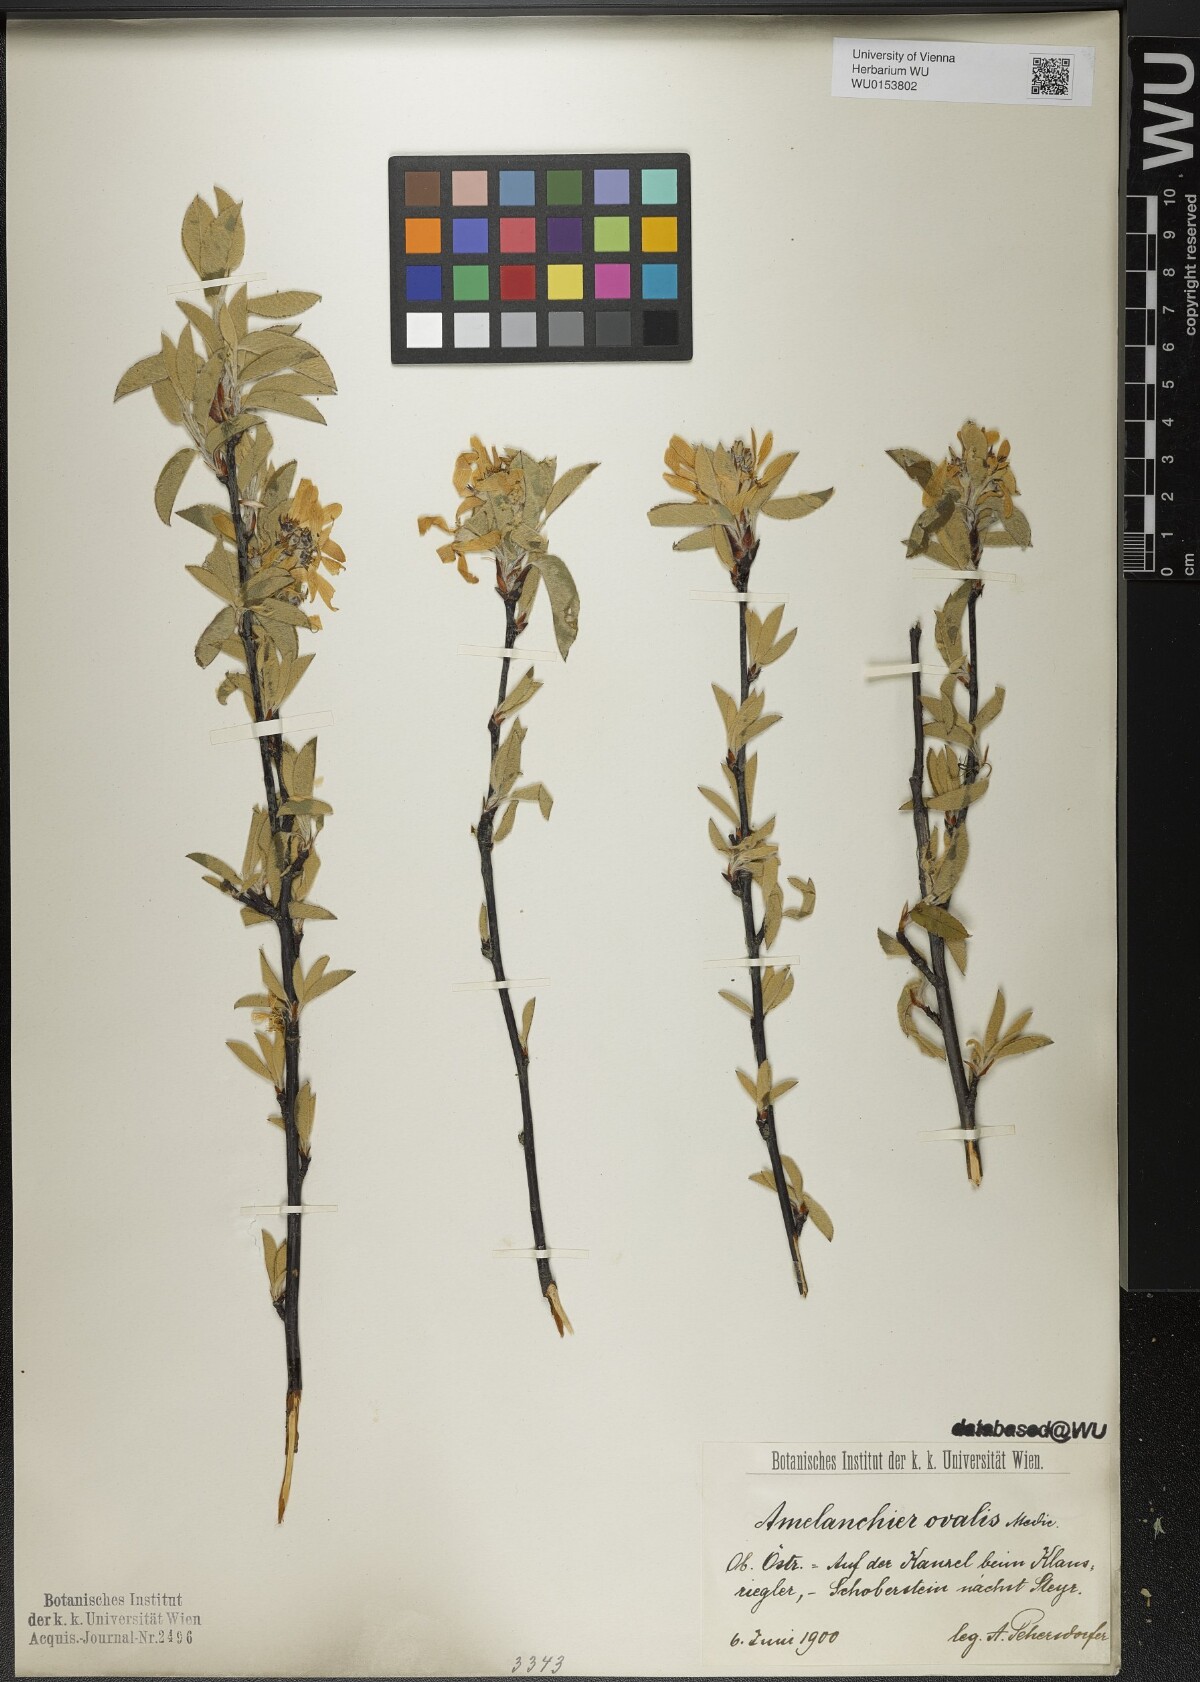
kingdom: Plantae
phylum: Tracheophyta
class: Magnoliopsida
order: Rosales
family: Rosaceae
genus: Amelanchier
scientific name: Amelanchier ovalis
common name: Serviceberry
